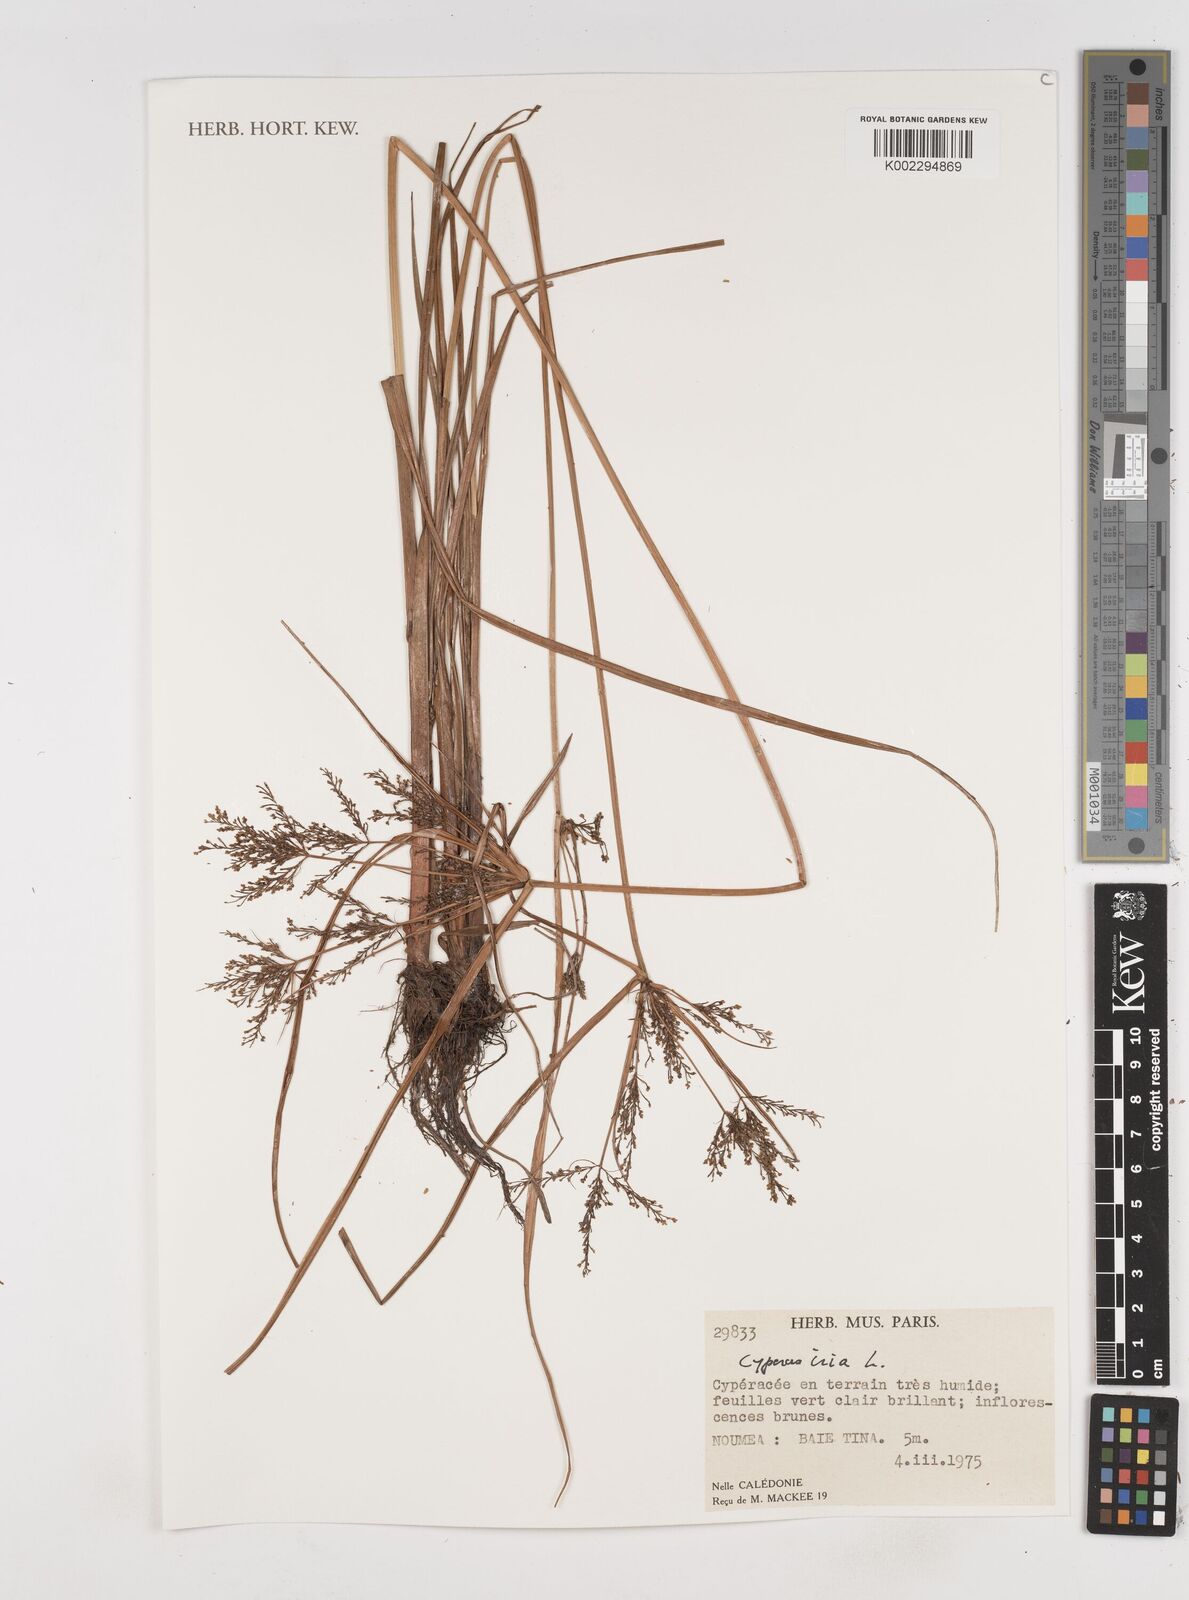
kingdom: Plantae
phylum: Tracheophyta
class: Liliopsida
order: Poales
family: Cyperaceae
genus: Cyperus
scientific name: Cyperus iria
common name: Ricefield flatsedge
